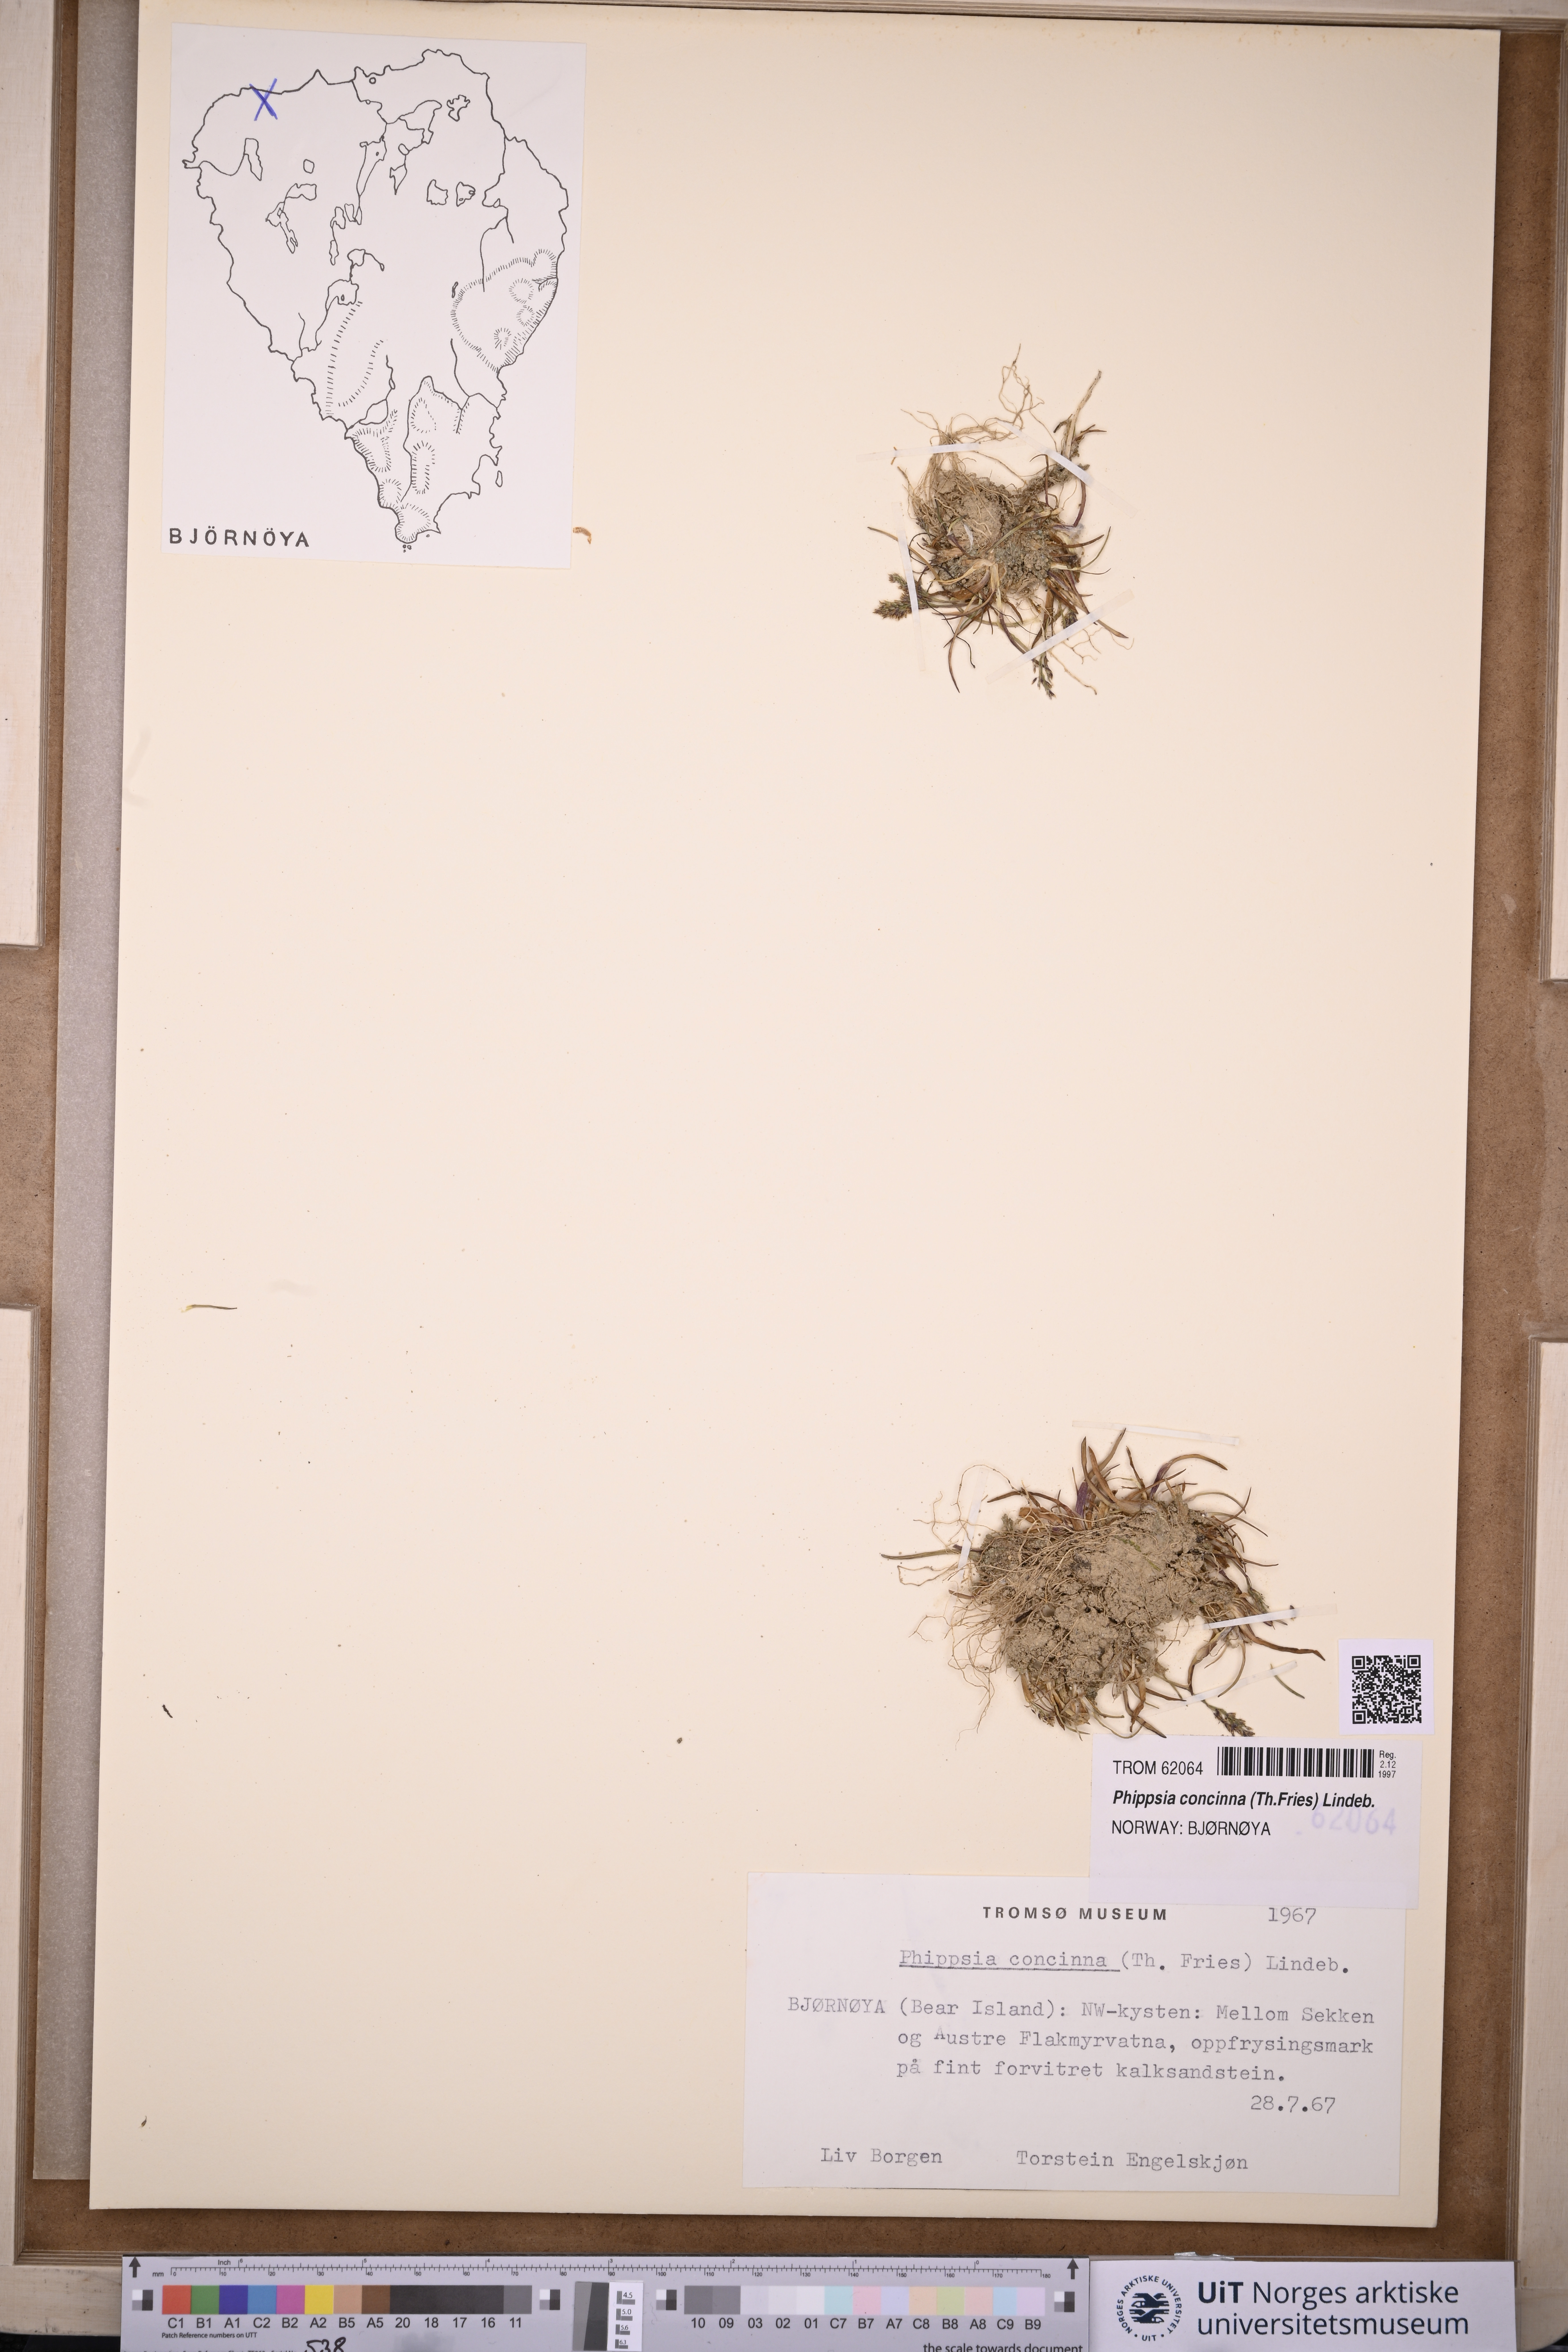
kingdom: Plantae
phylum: Tracheophyta
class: Liliopsida
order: Poales
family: Poaceae
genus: Phippsia
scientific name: Phippsia concinna
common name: Snowgrass
